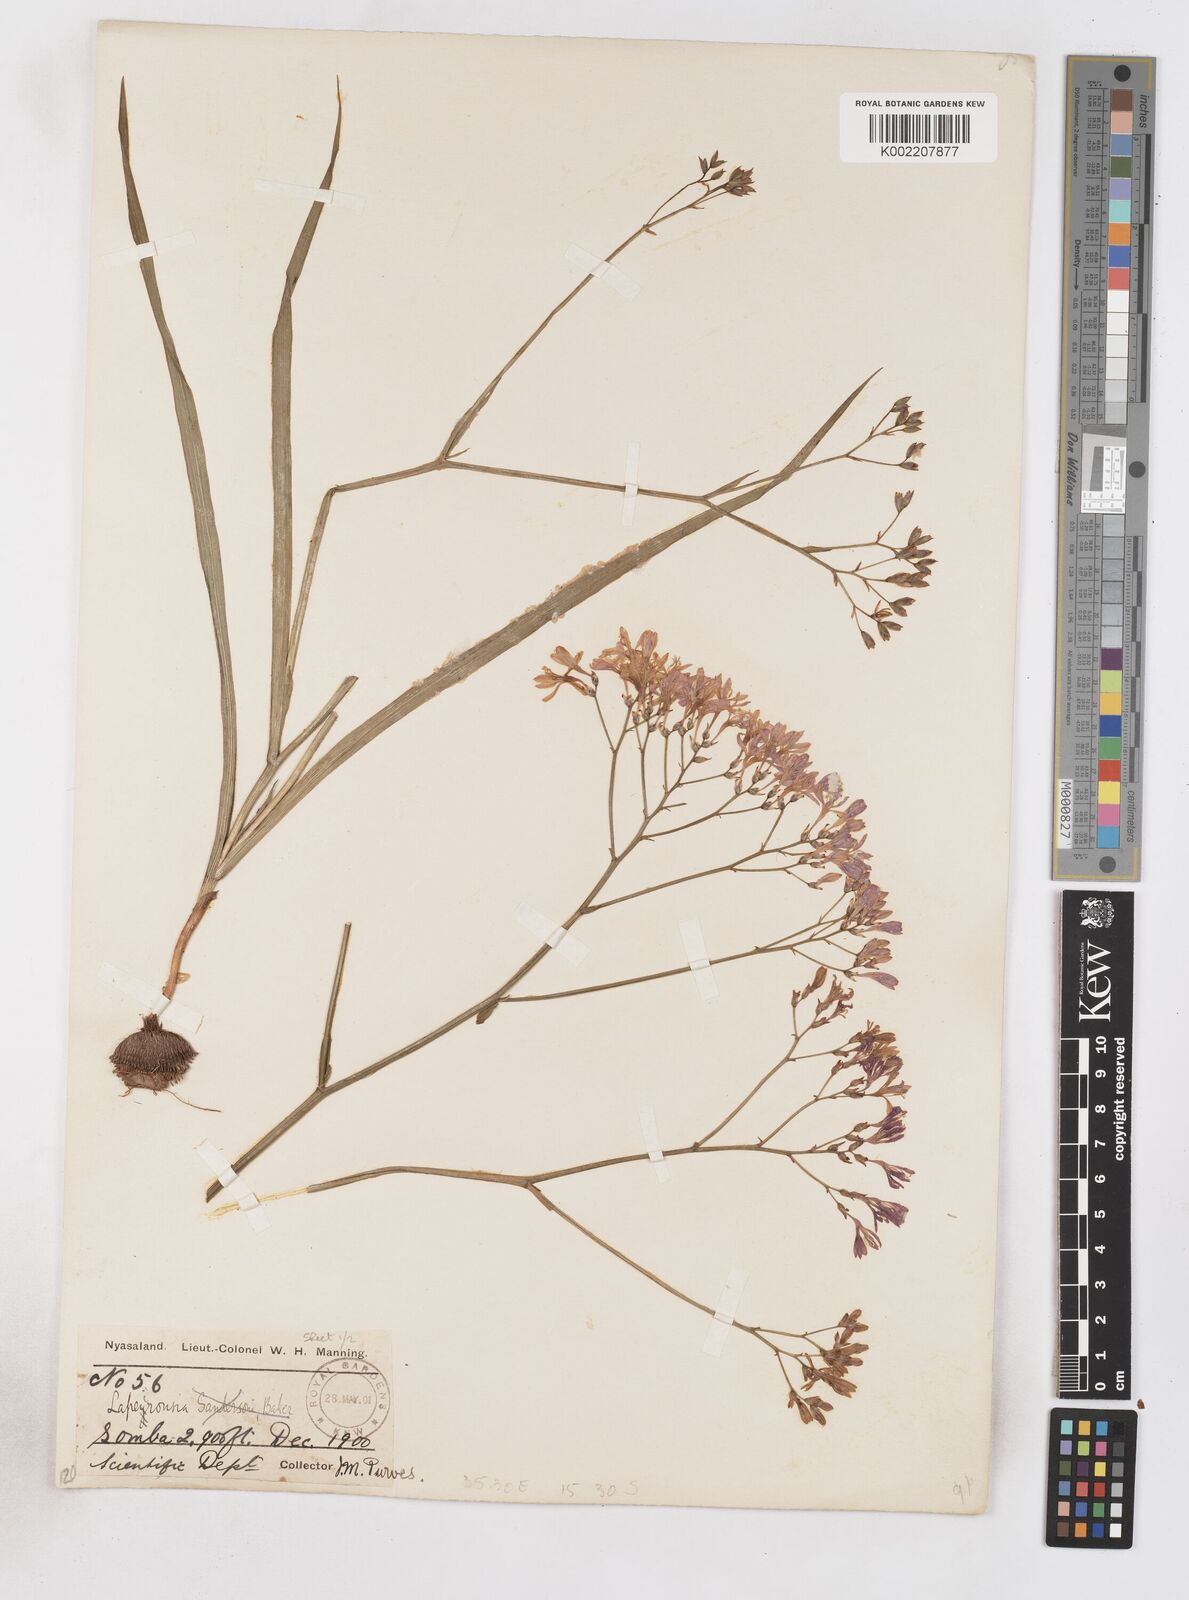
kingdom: Plantae
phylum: Tracheophyta
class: Liliopsida
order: Asparagales
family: Iridaceae
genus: Afrosolen
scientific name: Afrosolen erythranthus
